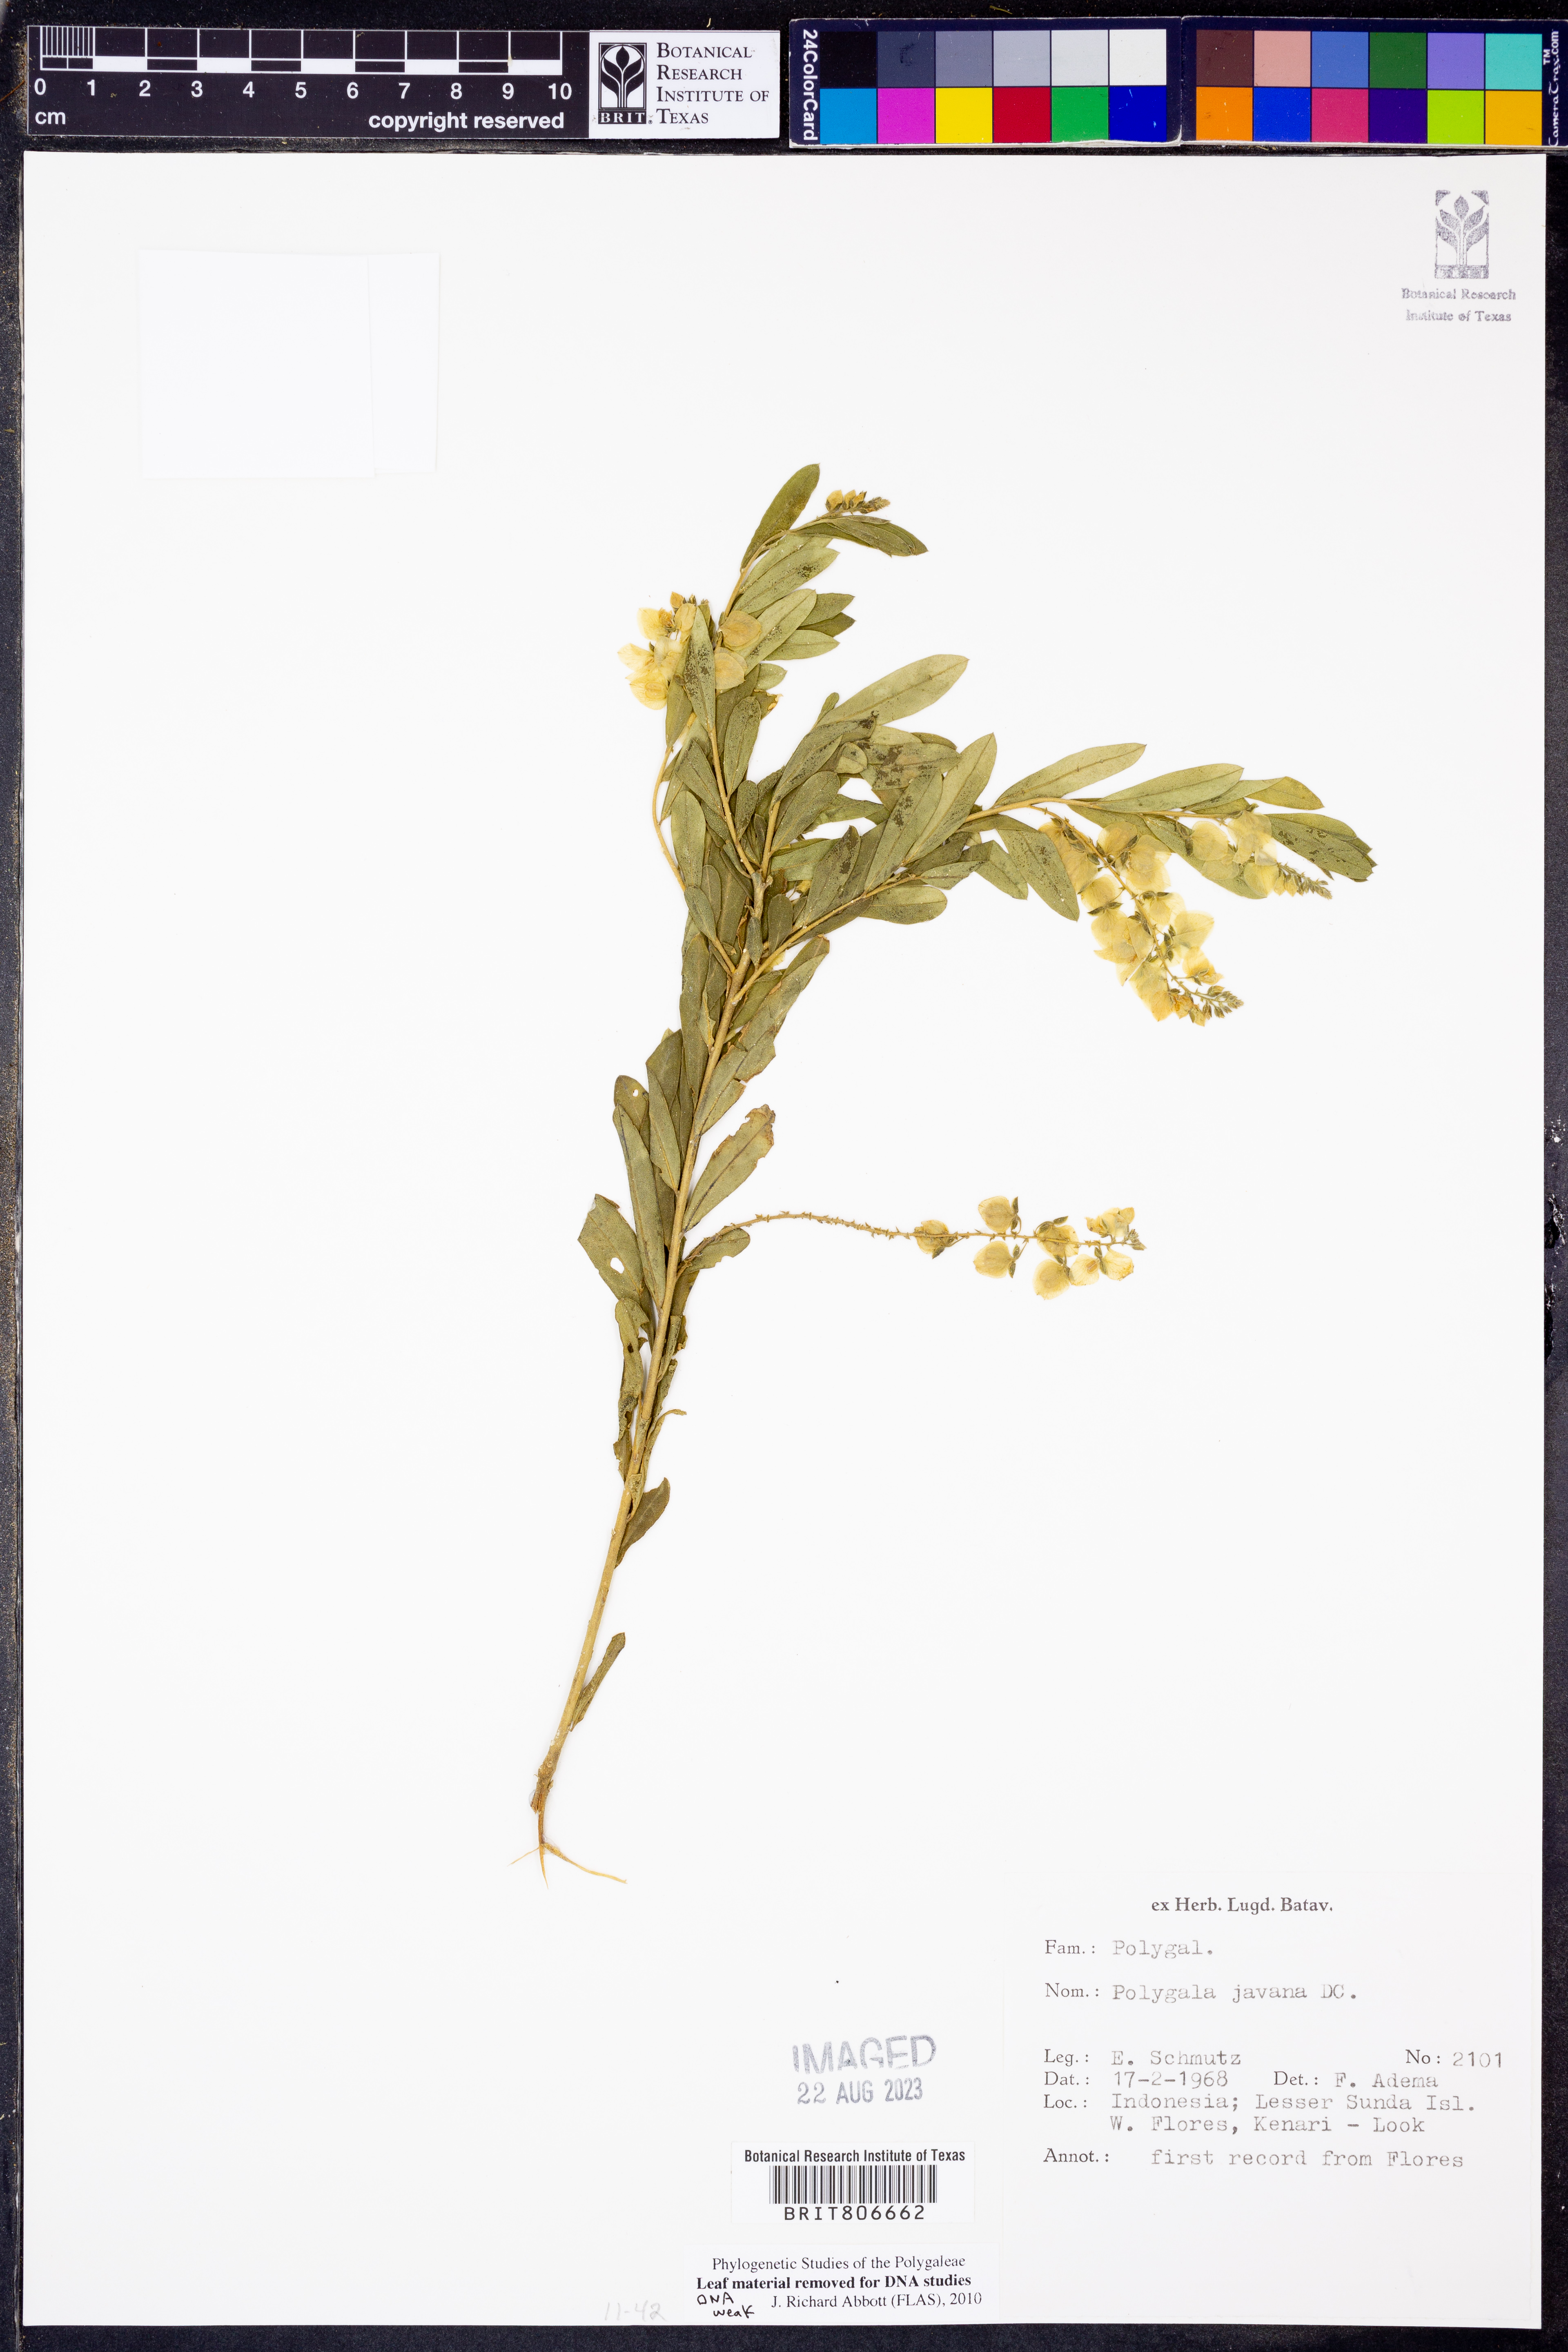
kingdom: Plantae
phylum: Tracheophyta
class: Magnoliopsida
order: Fabales
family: Polygalaceae
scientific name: Polygalaceae
